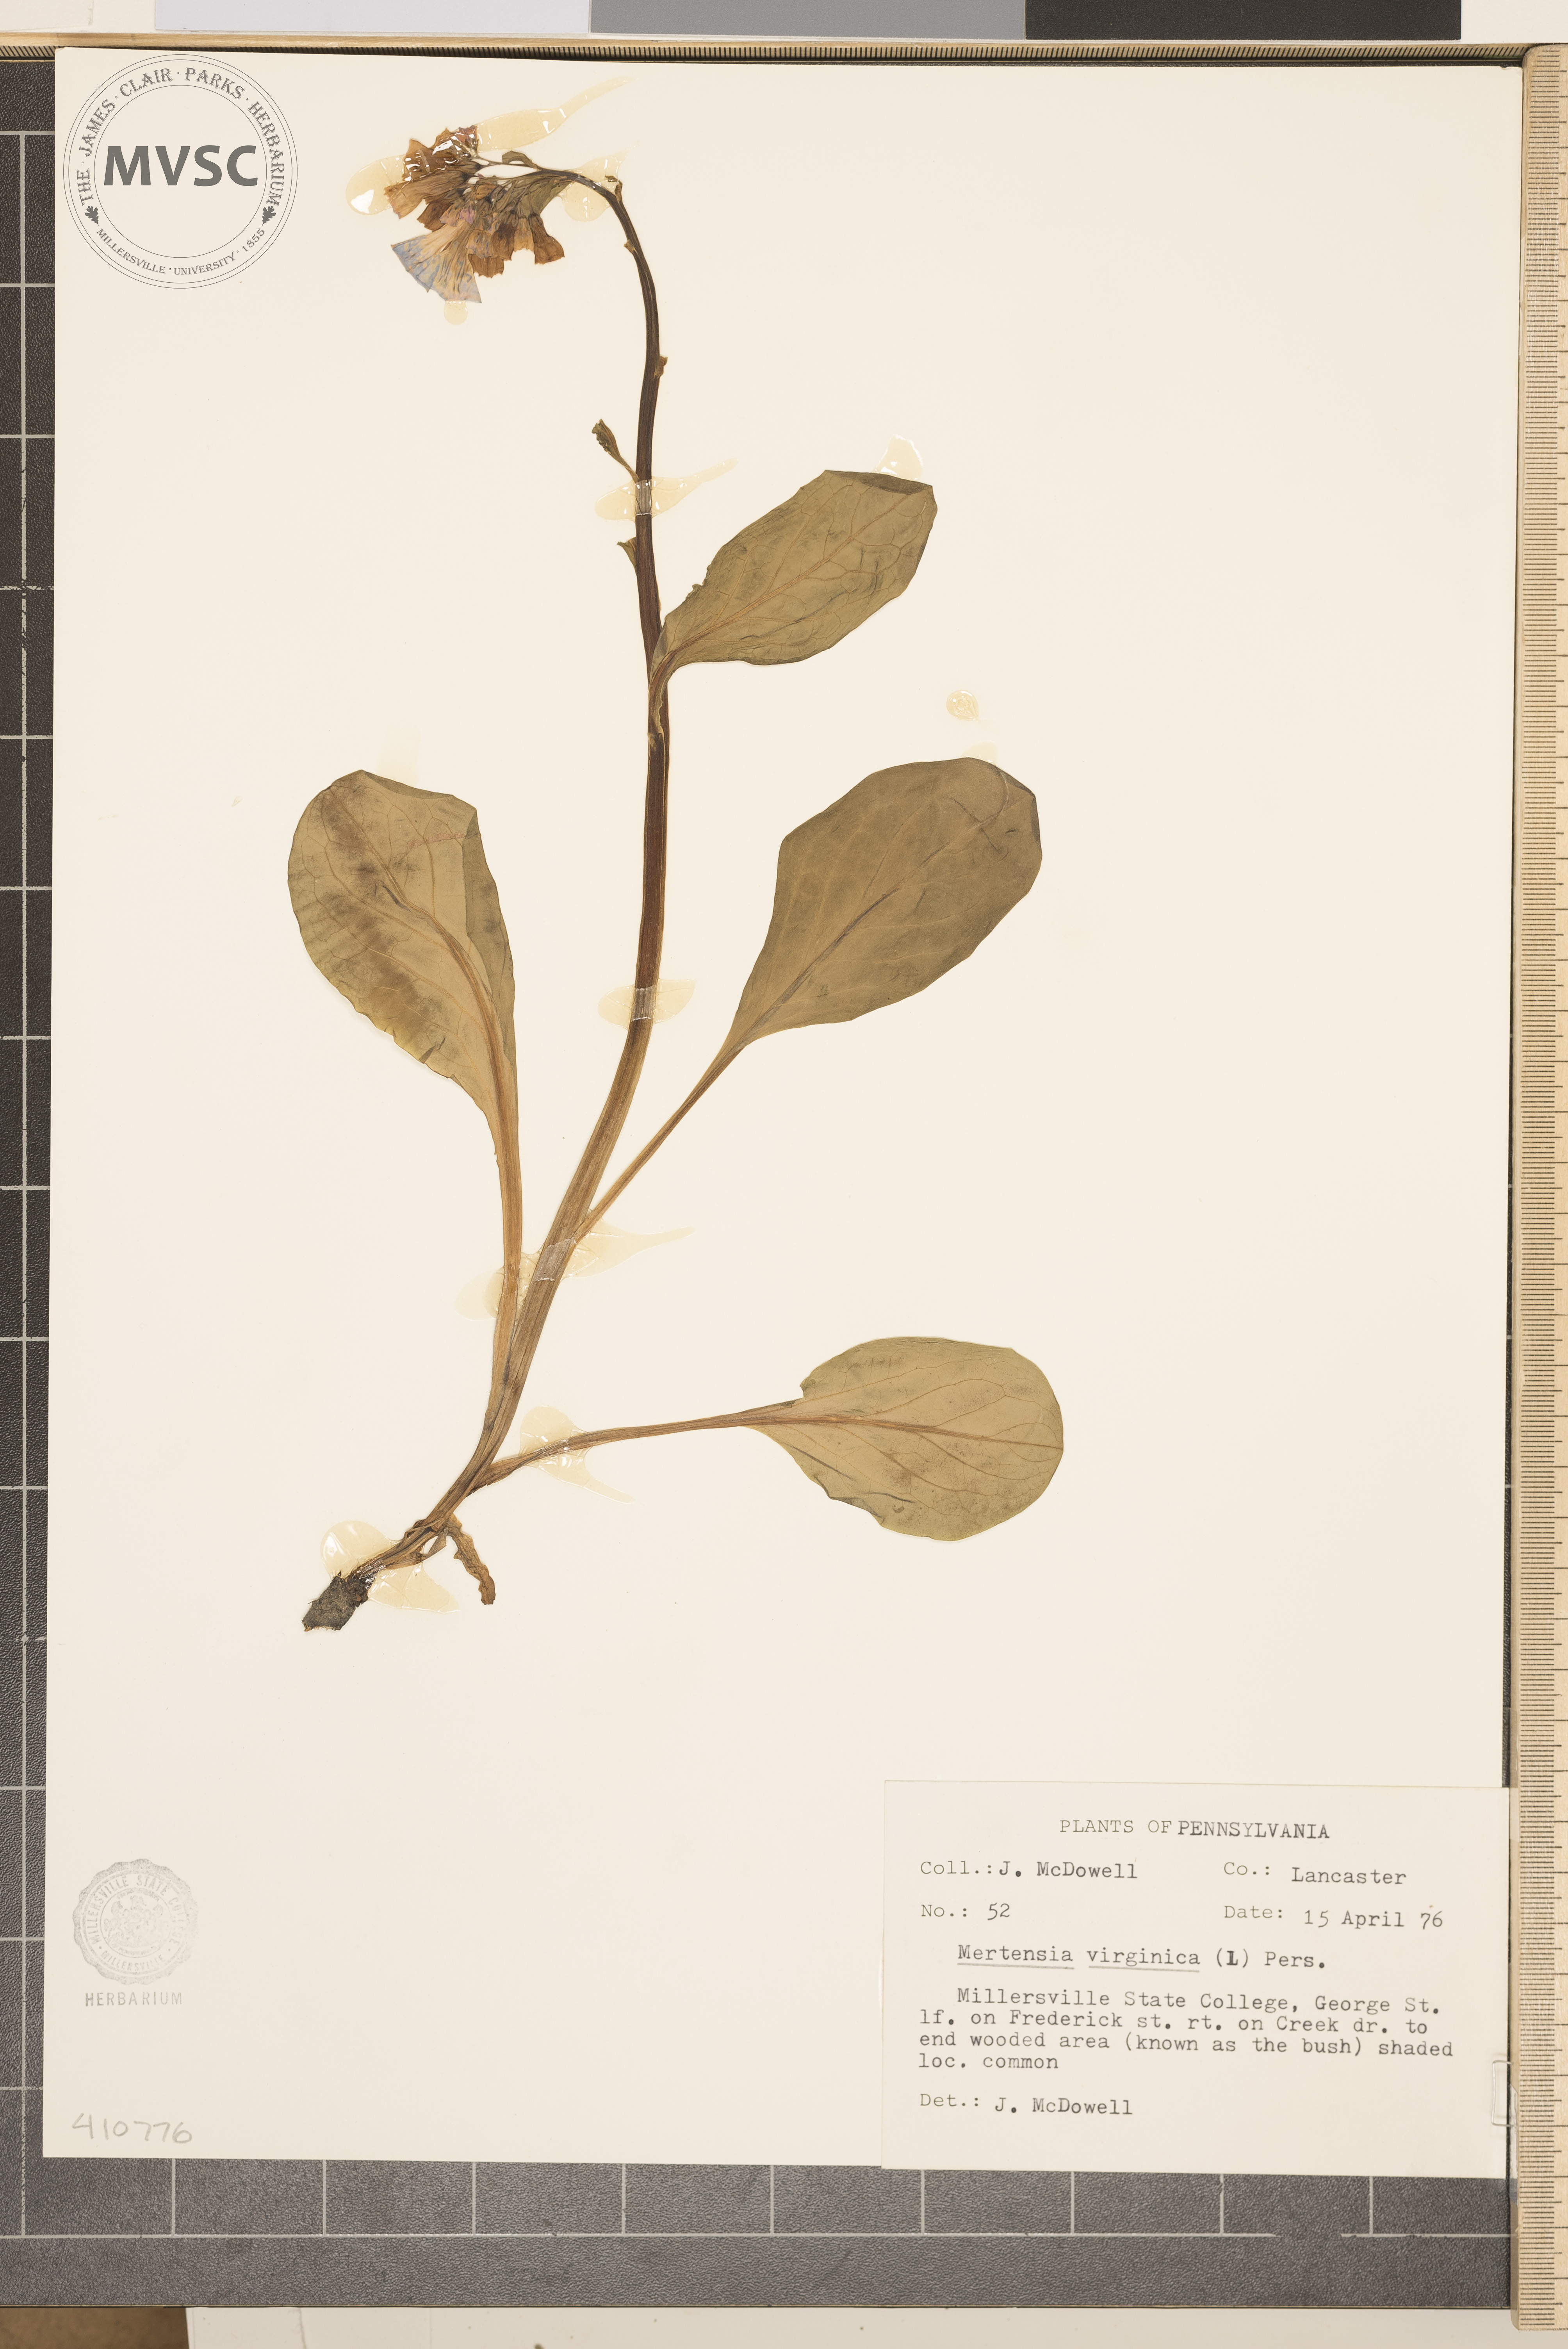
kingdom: Plantae
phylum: Tracheophyta
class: Magnoliopsida
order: Boraginales
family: Boraginaceae
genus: Mertensia
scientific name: Mertensia virginica
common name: Virginia bluebells
